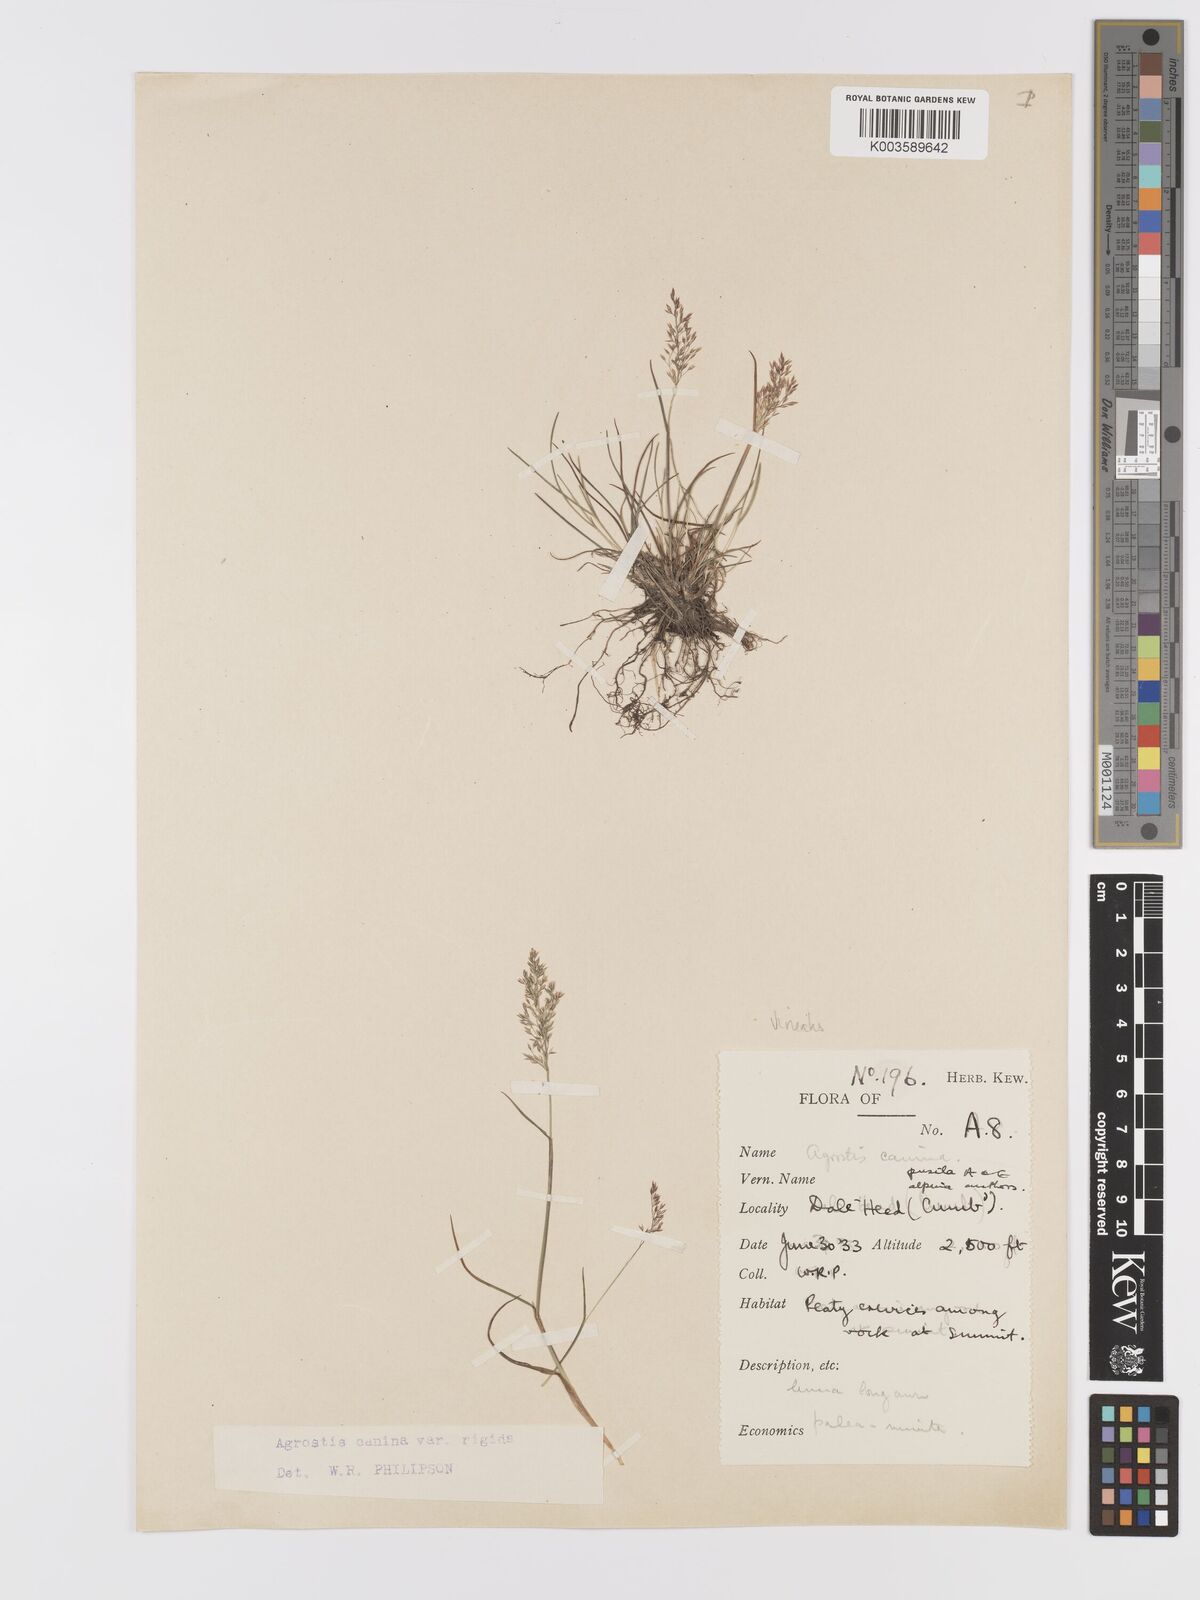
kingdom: Plantae
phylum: Tracheophyta
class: Liliopsida
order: Poales
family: Poaceae
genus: Agrostis
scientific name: Agrostis
